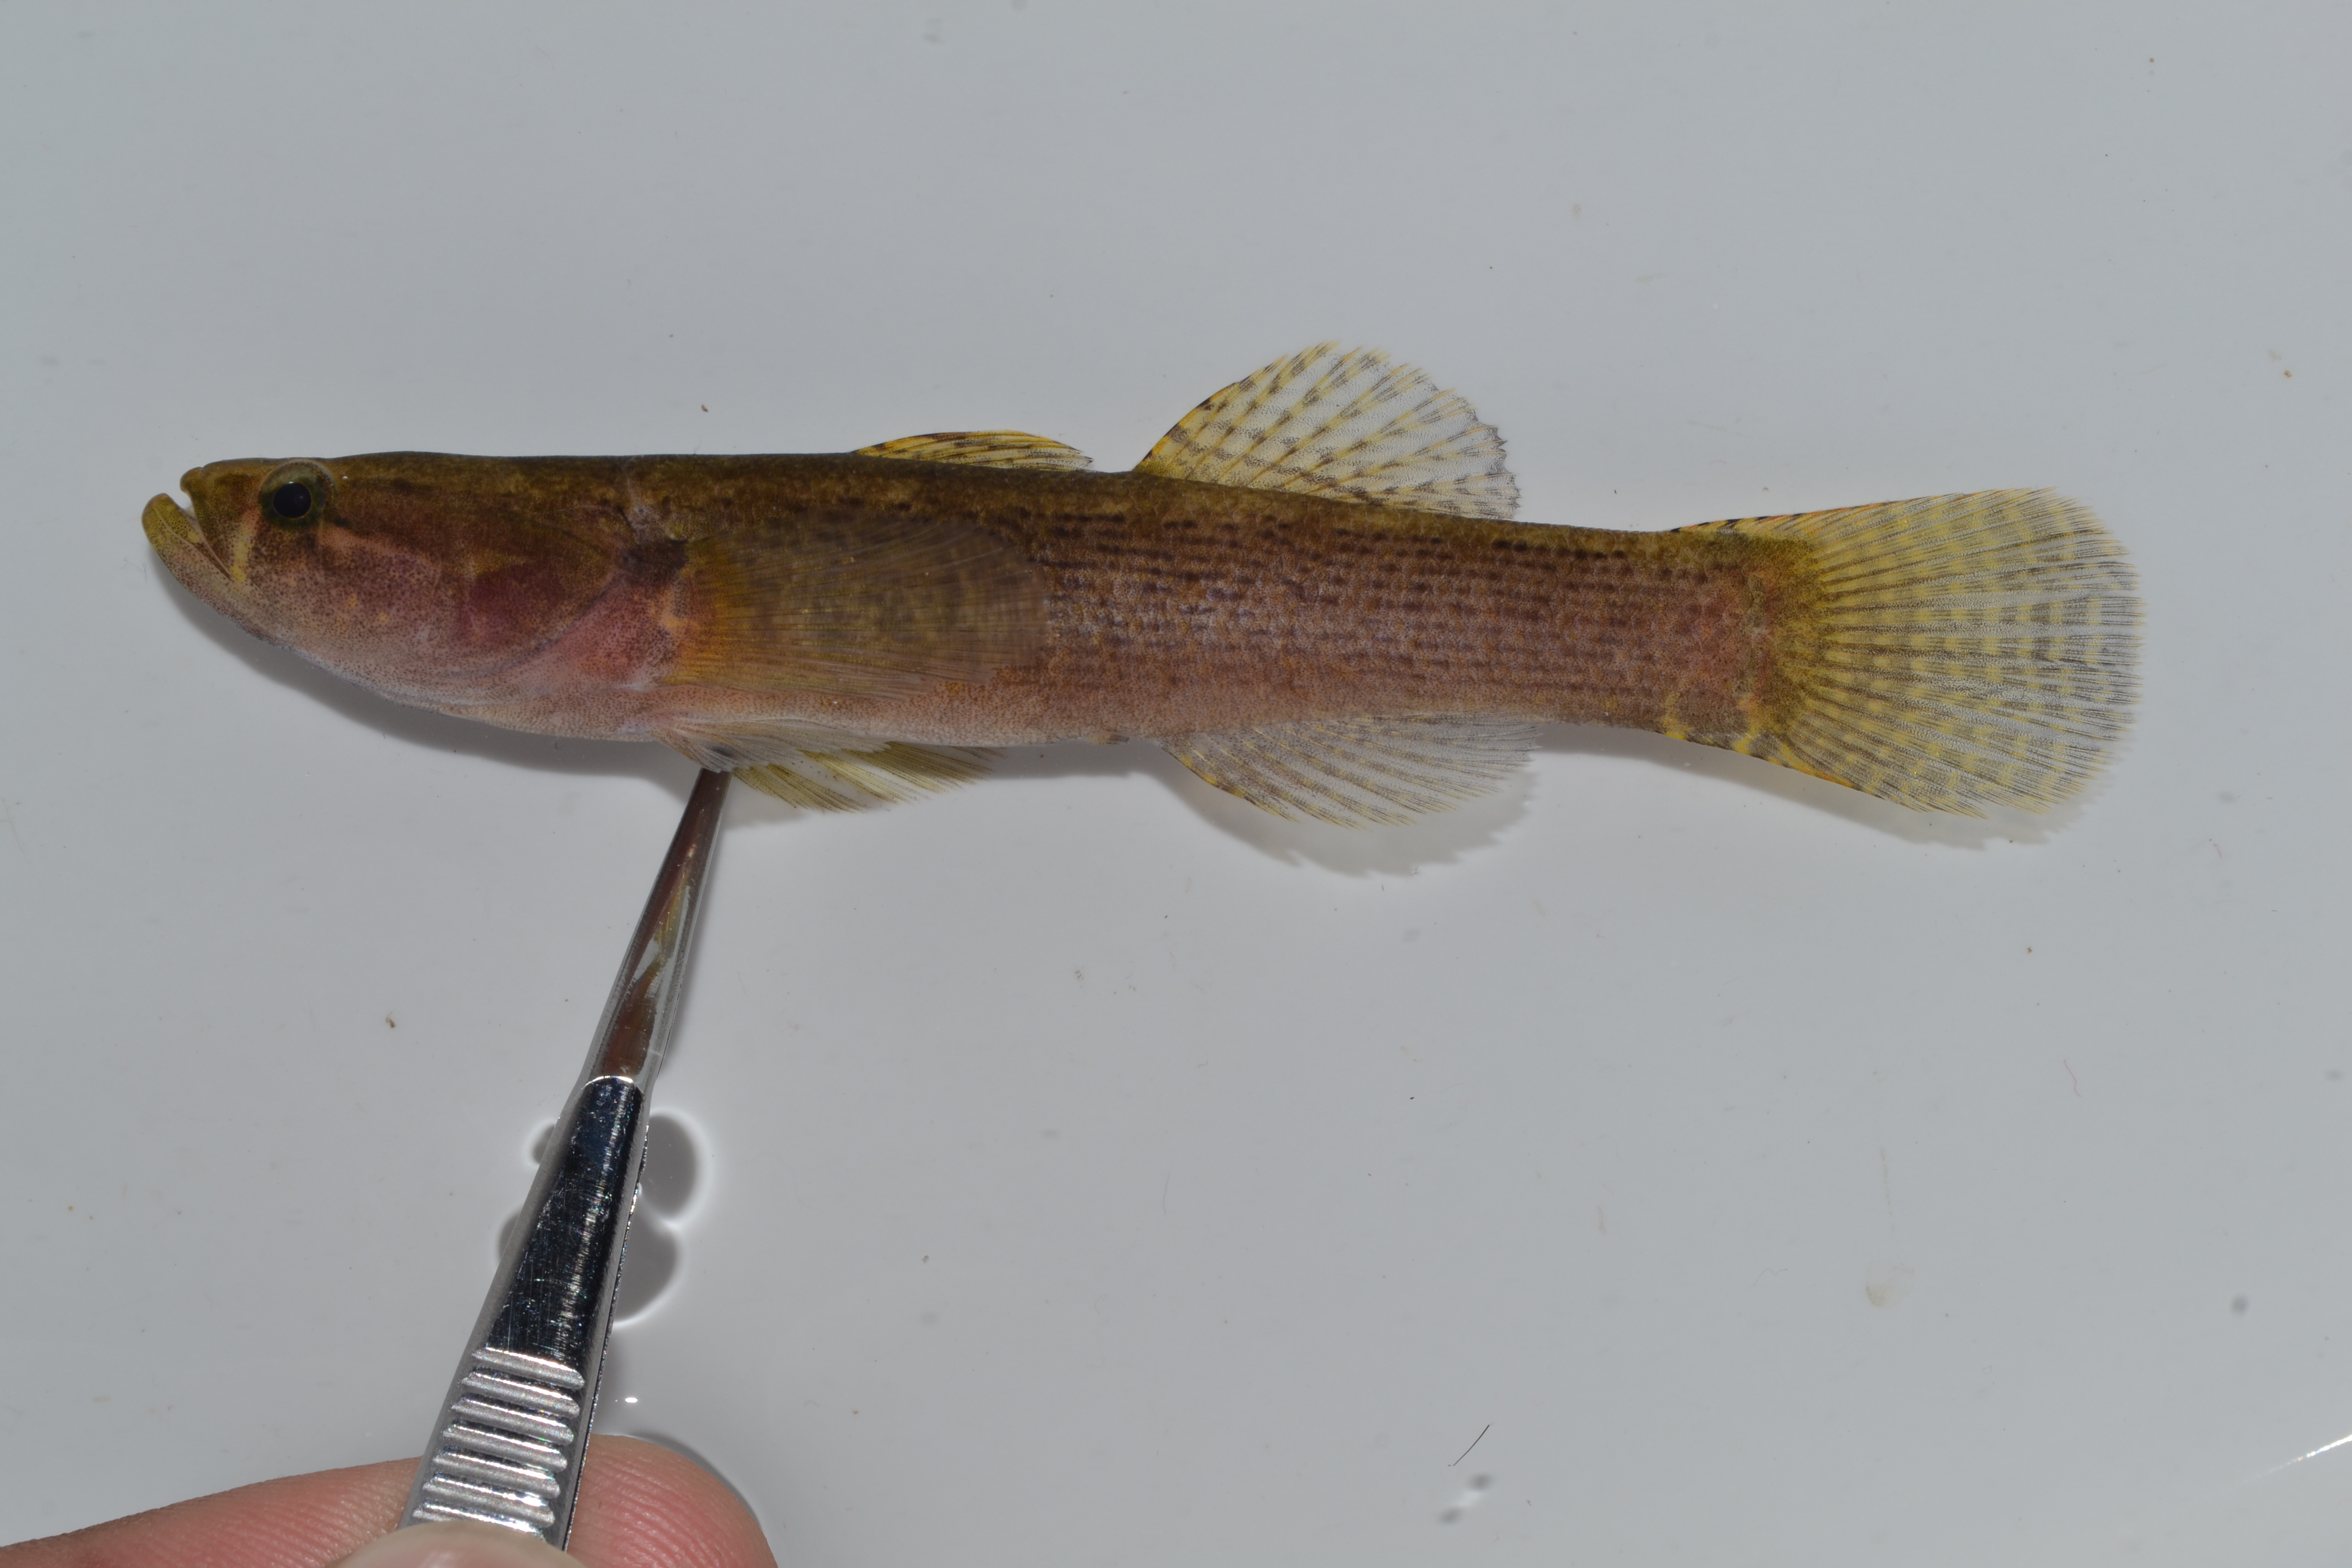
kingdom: Animalia
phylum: Chordata
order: Perciformes
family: Gobiidae
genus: Glossogobius
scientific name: Glossogobius
